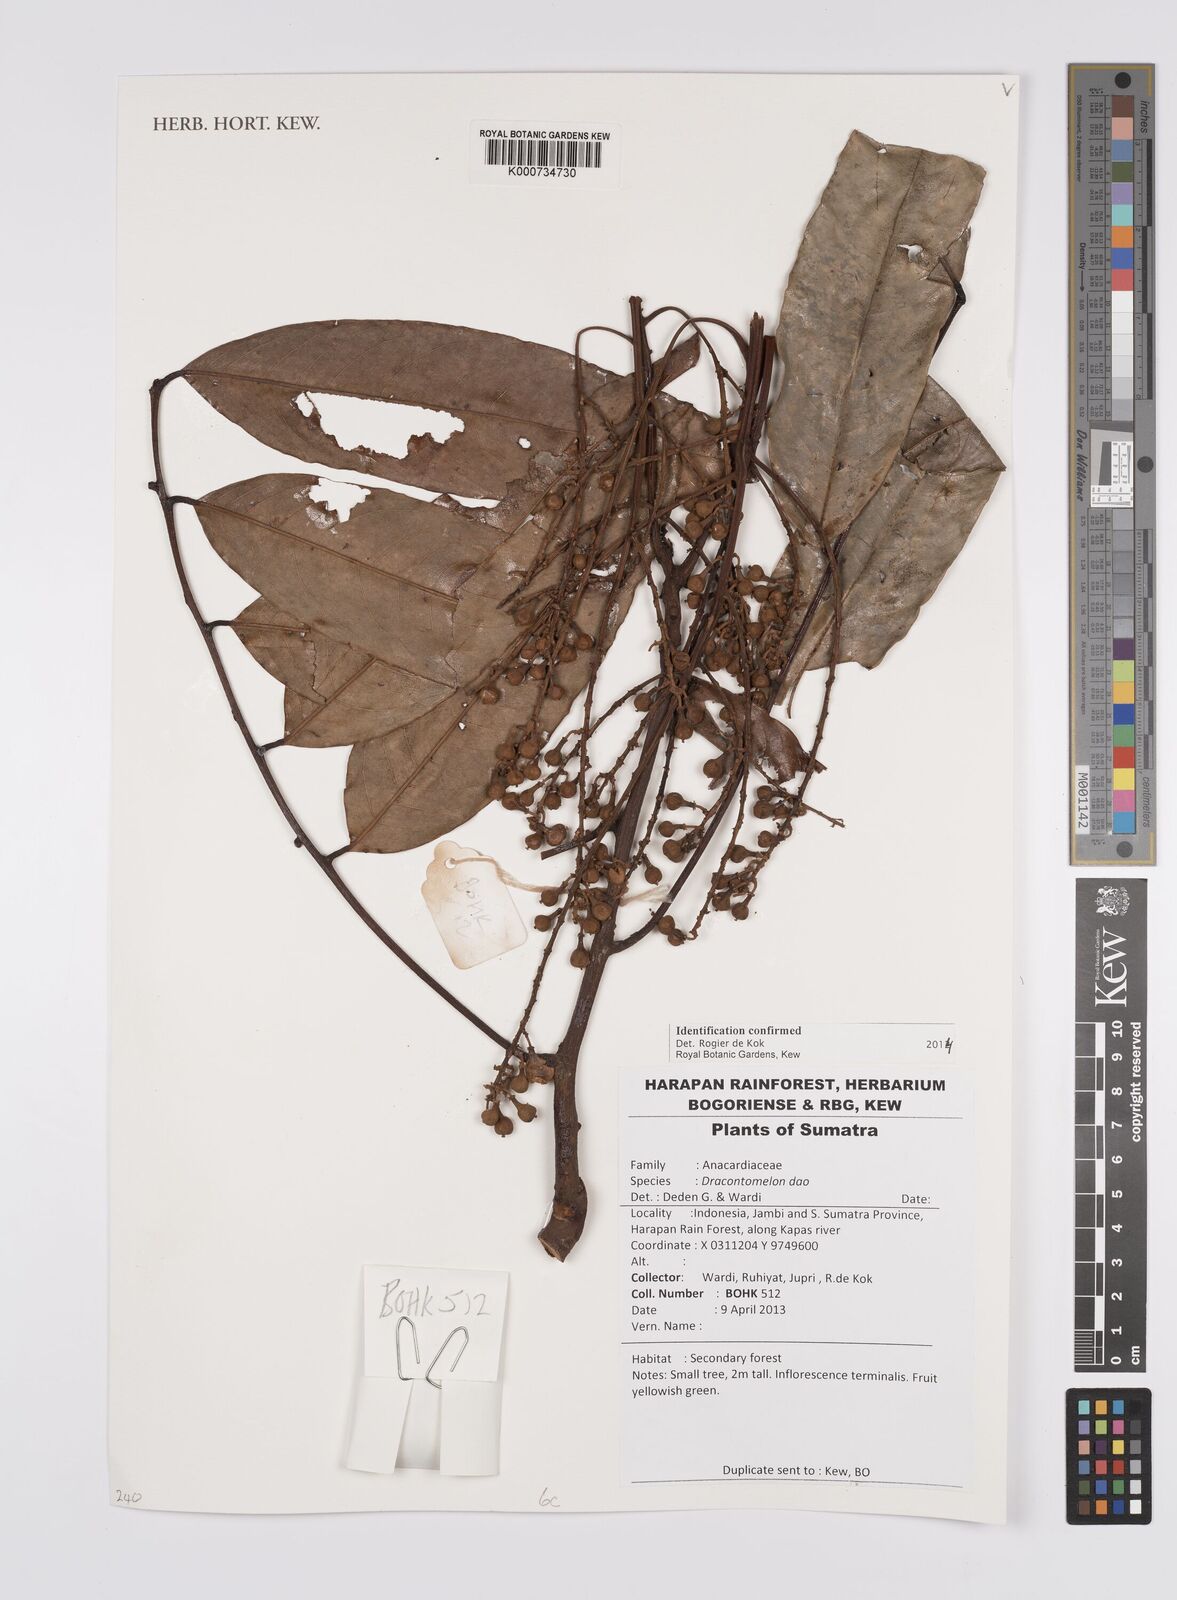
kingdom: Plantae
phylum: Tracheophyta
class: Magnoliopsida
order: Sapindales
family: Anacardiaceae
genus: Dracontomelon
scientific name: Dracontomelon dao
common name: Argus pheasant-tree
